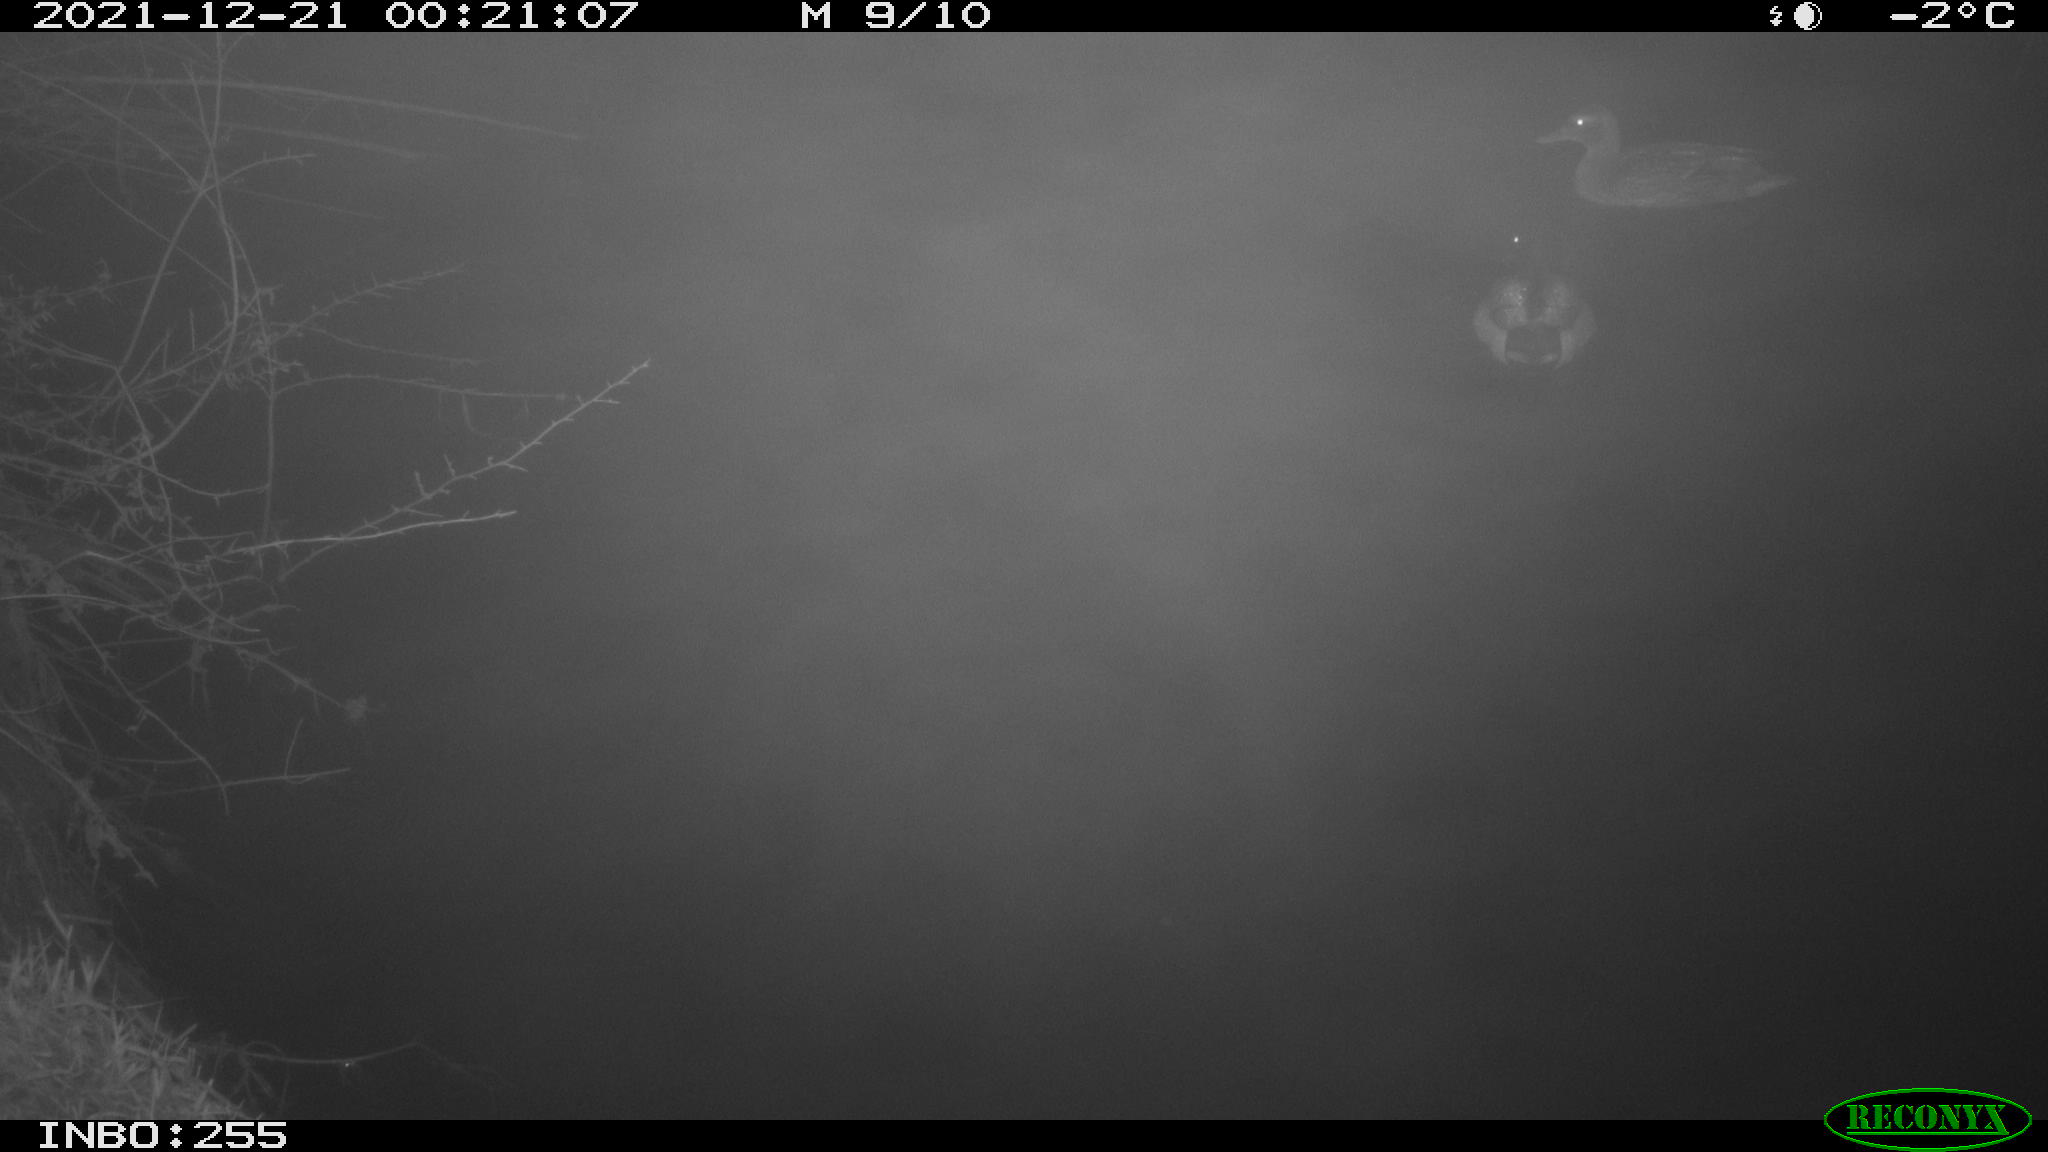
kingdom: Animalia
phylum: Chordata
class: Aves
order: Anseriformes
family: Anatidae
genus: Anas
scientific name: Anas
